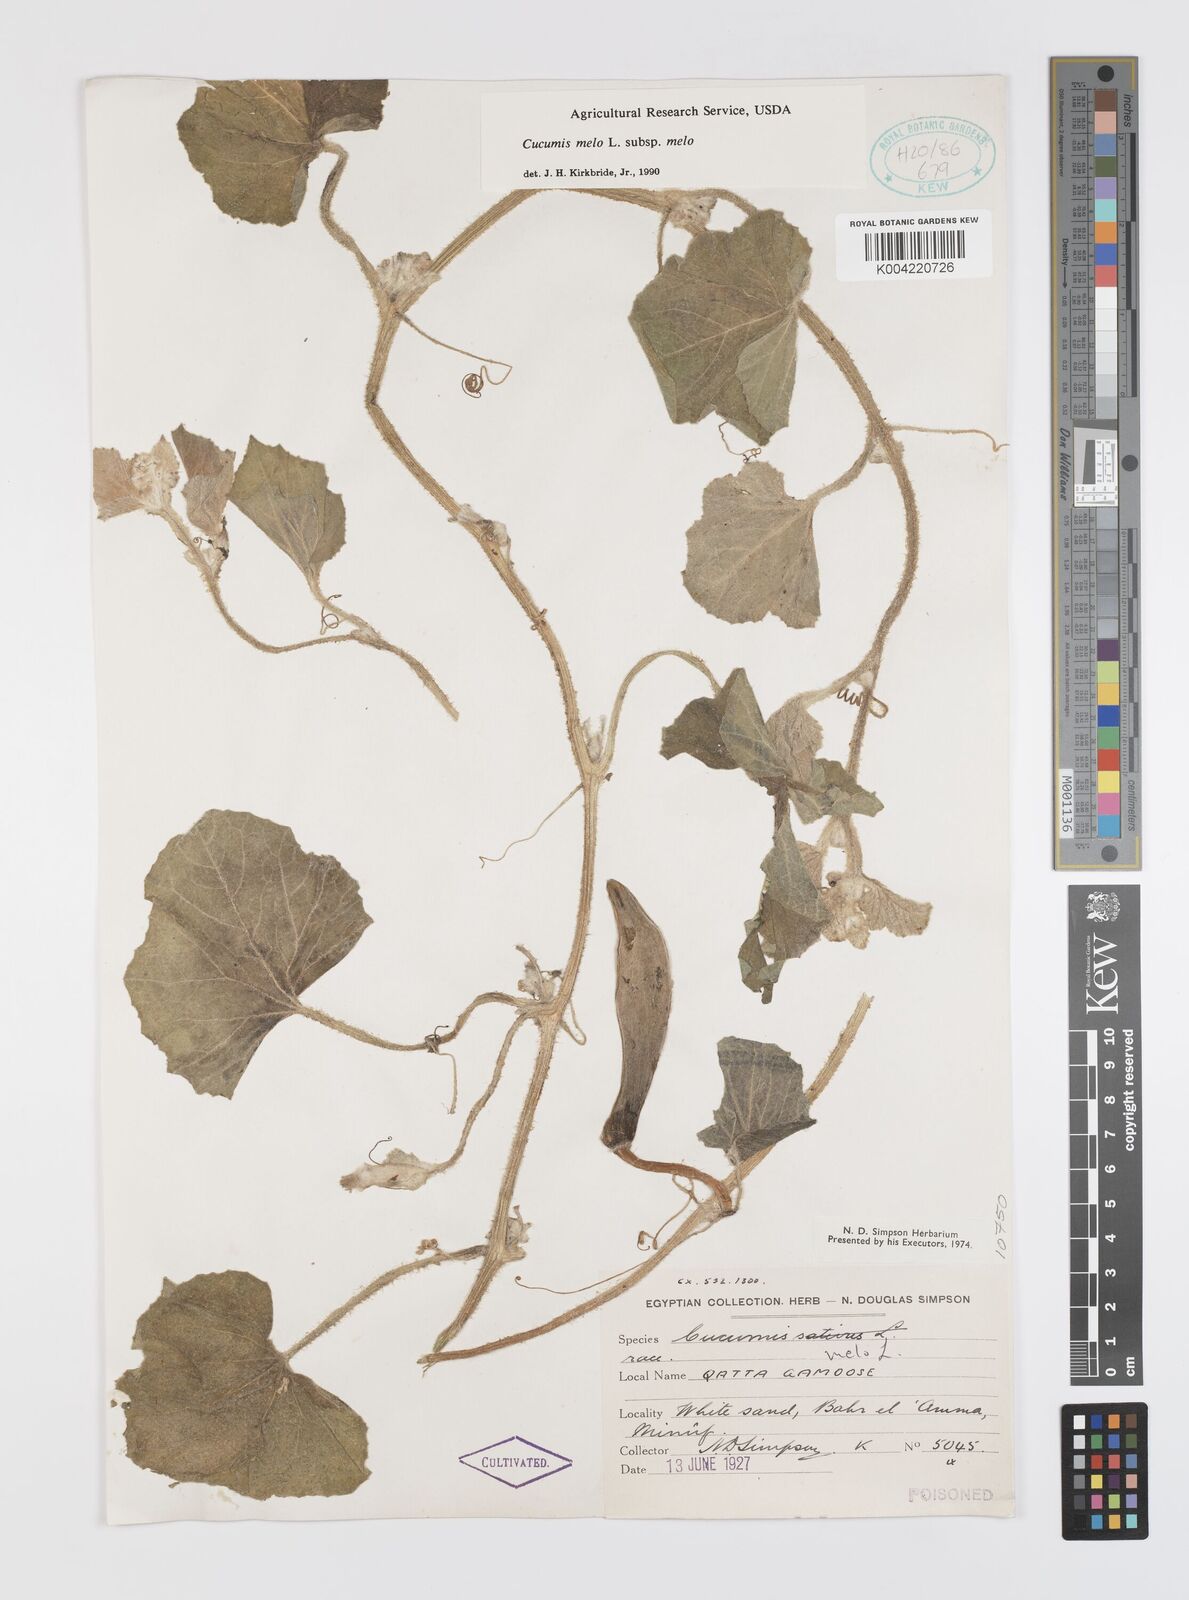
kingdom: Plantae
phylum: Tracheophyta
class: Magnoliopsida
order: Cucurbitales
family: Cucurbitaceae
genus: Cucumis
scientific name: Cucumis melo
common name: Melon
